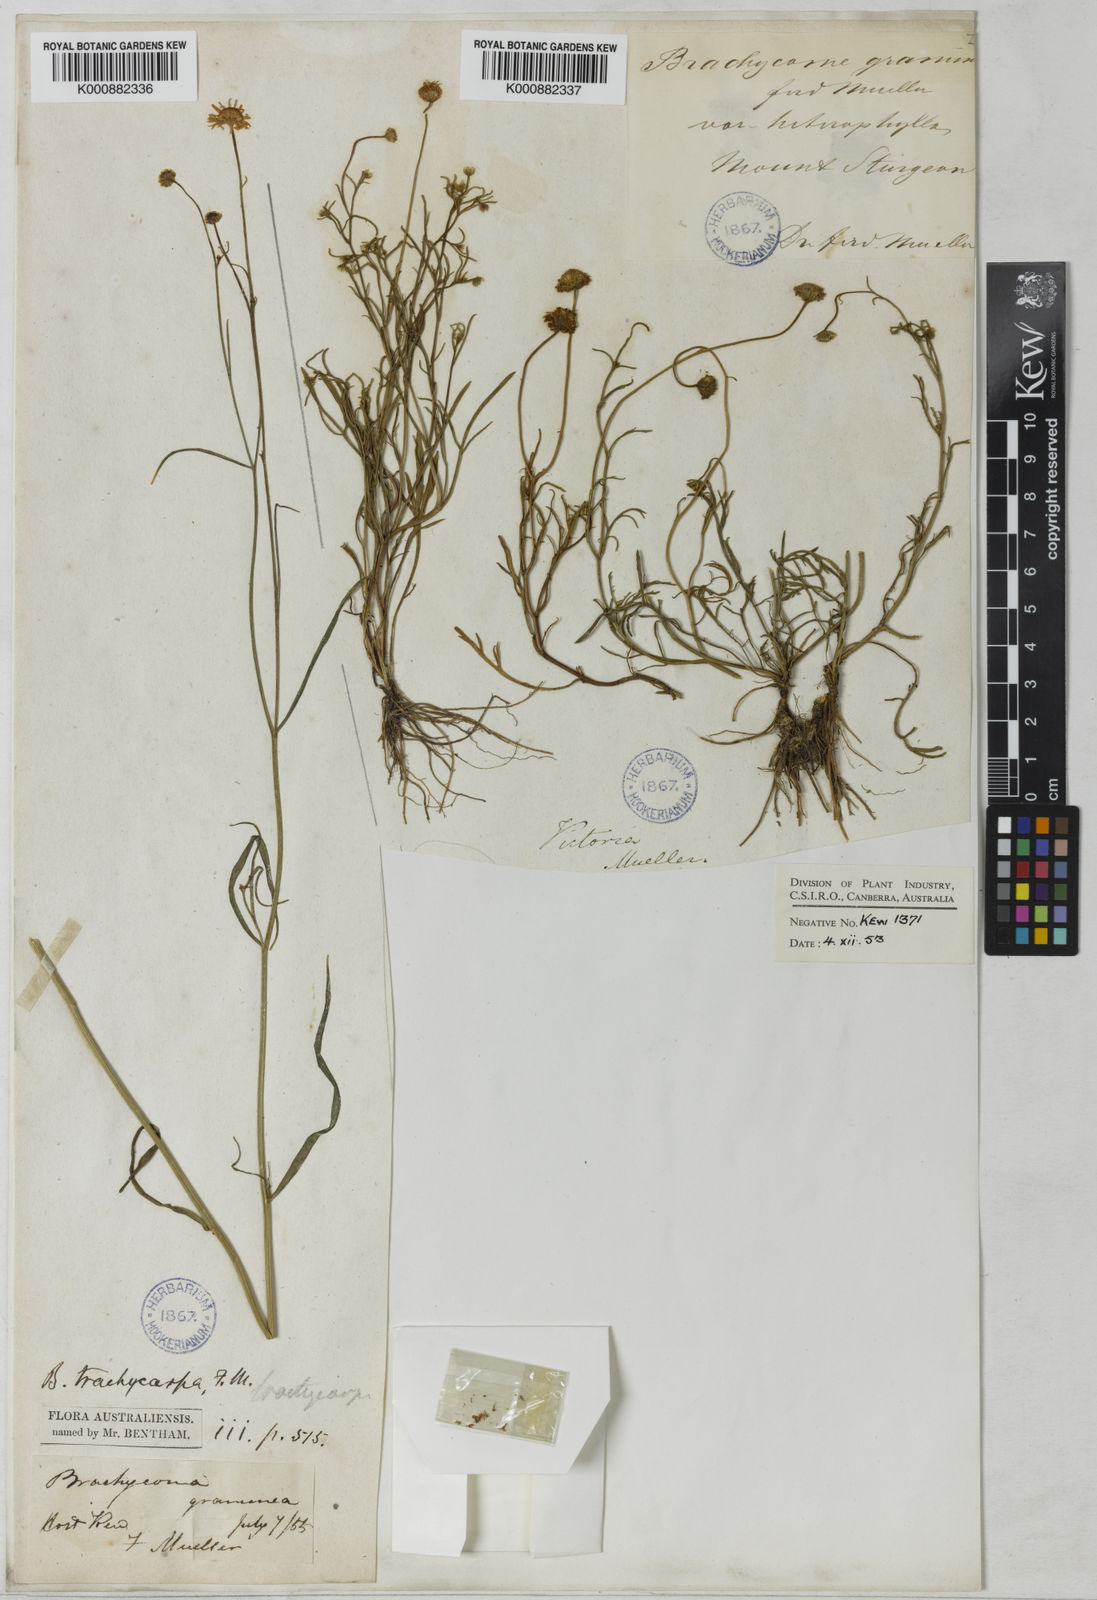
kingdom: Plantae
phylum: Tracheophyta
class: Magnoliopsida
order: Asterales
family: Asteraceae
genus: Brachyscome
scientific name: Brachyscome parvula
